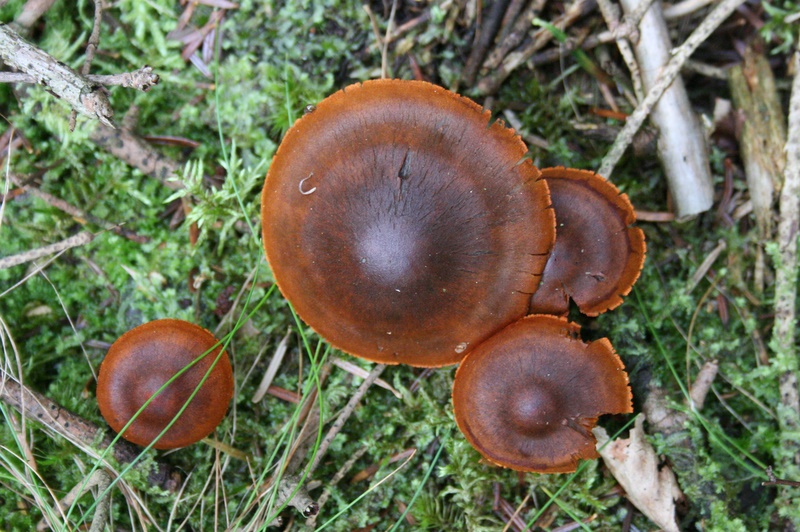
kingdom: Fungi
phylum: Basidiomycota
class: Agaricomycetes
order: Agaricales
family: Cortinariaceae
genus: Cortinarius
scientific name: Cortinarius malicorius
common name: grønkødet slørhat
